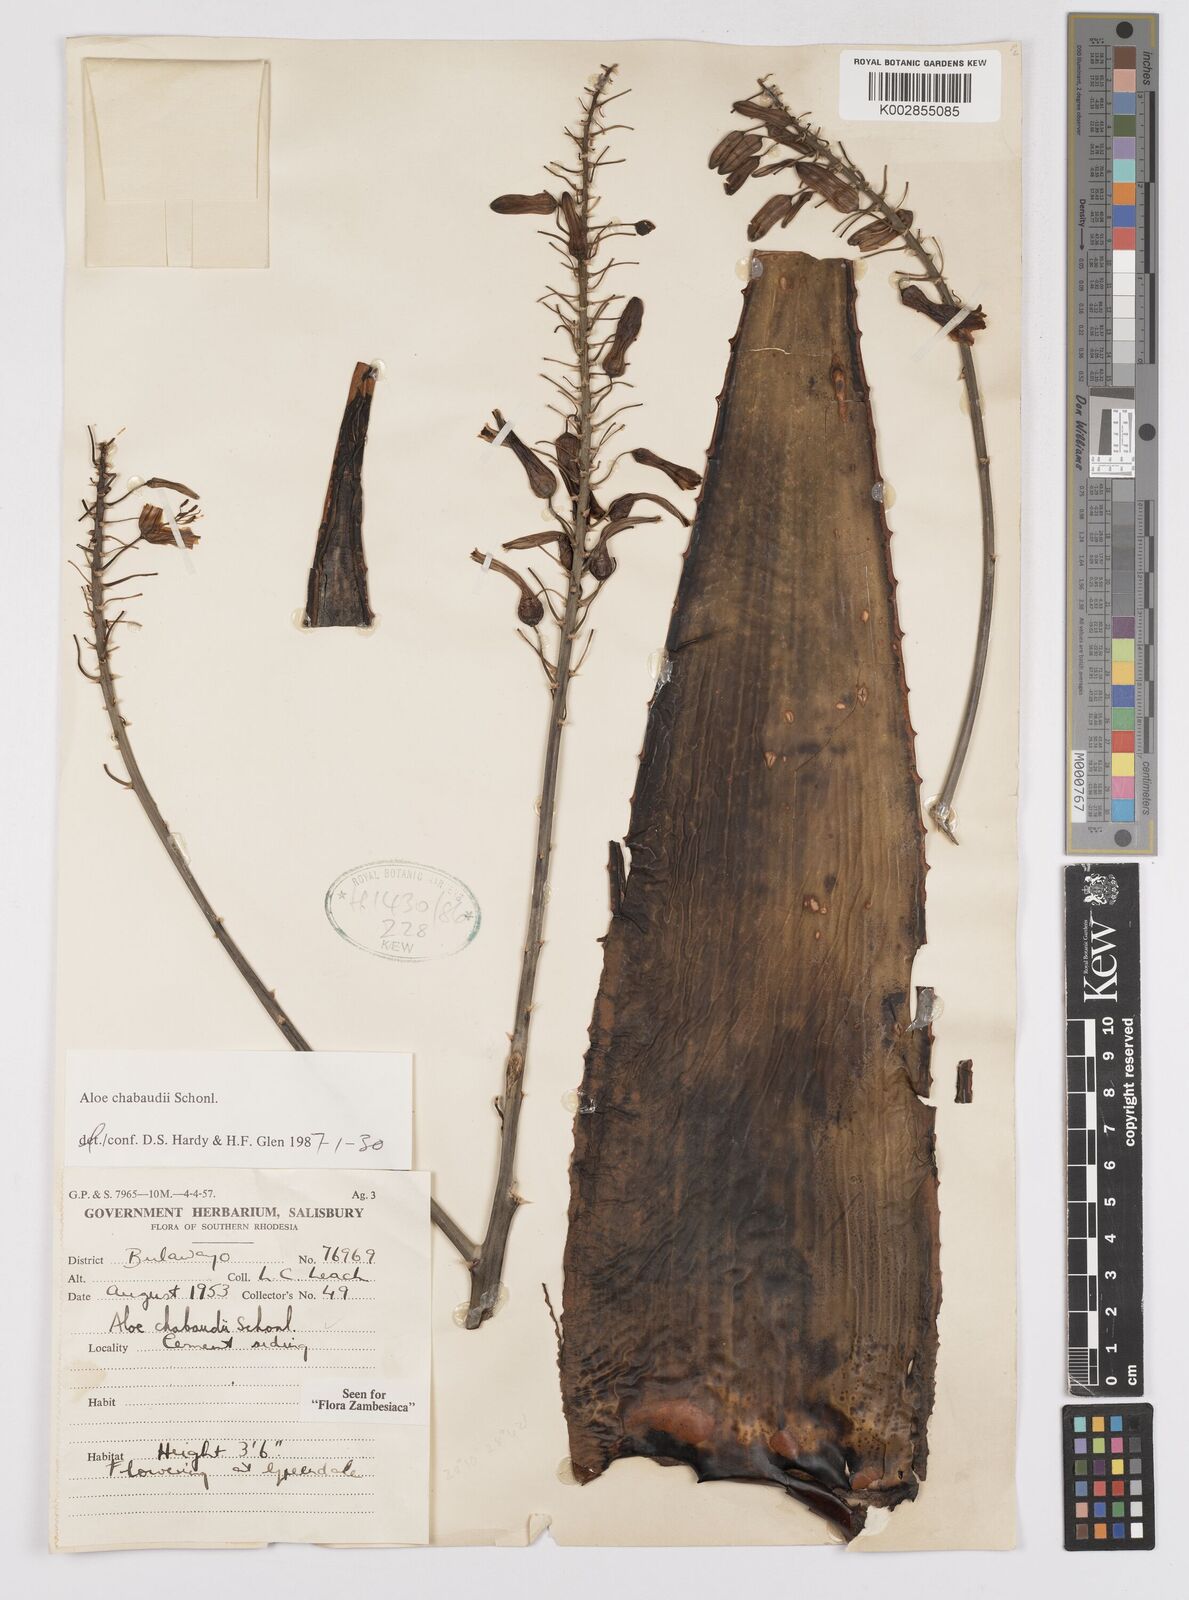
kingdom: Plantae
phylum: Tracheophyta
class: Liliopsida
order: Asparagales
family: Asphodelaceae
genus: Aloe
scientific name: Aloe chabaudii
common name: Chabaud's aloe
